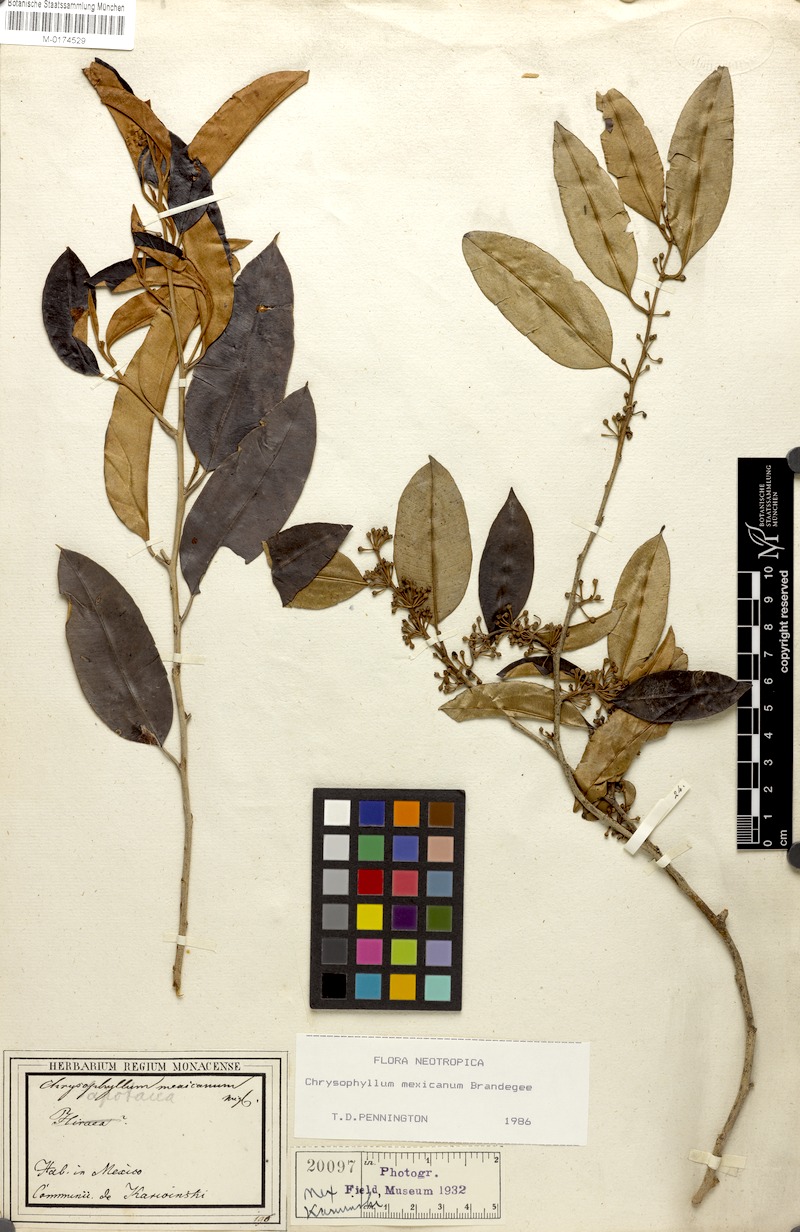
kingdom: Plantae
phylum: Tracheophyta
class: Magnoliopsida
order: Ericales
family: Sapotaceae
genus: Chrysophyllum
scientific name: Chrysophyllum mexicanum
